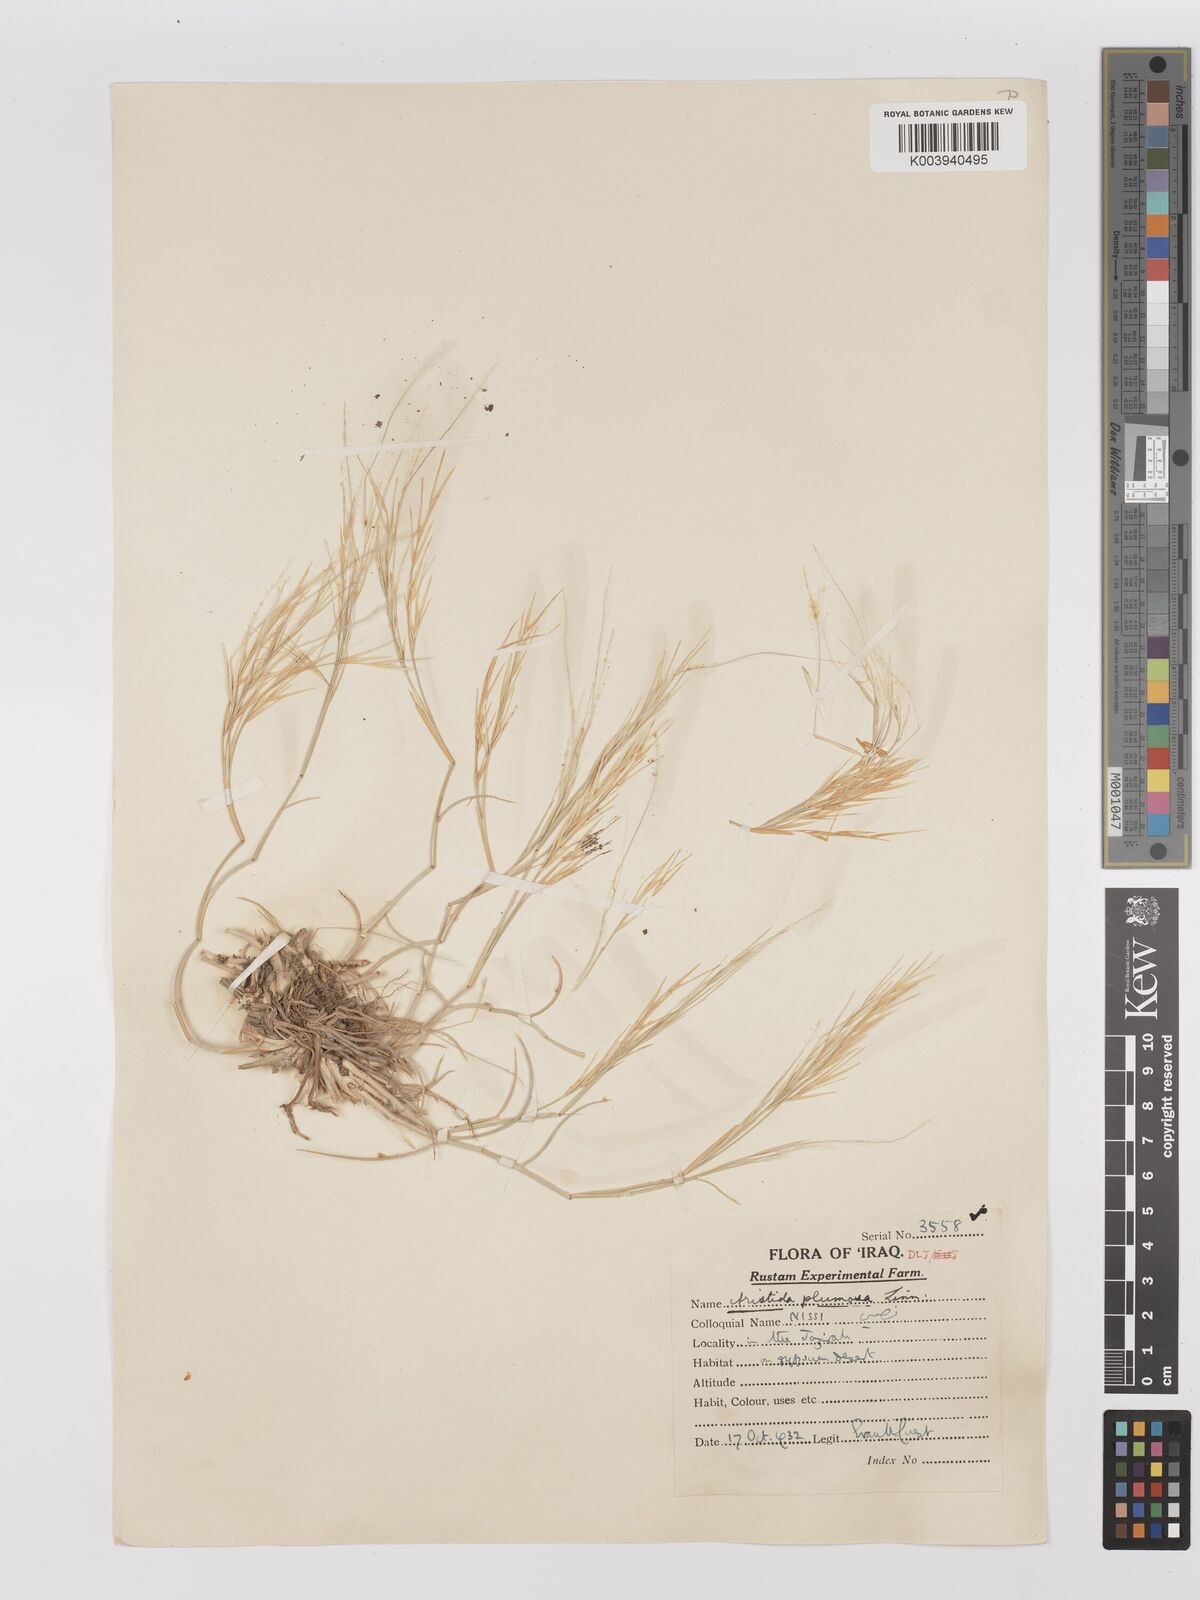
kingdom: Plantae
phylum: Tracheophyta
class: Liliopsida
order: Poales
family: Poaceae
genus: Stipagrostis
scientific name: Stipagrostis plumosa
